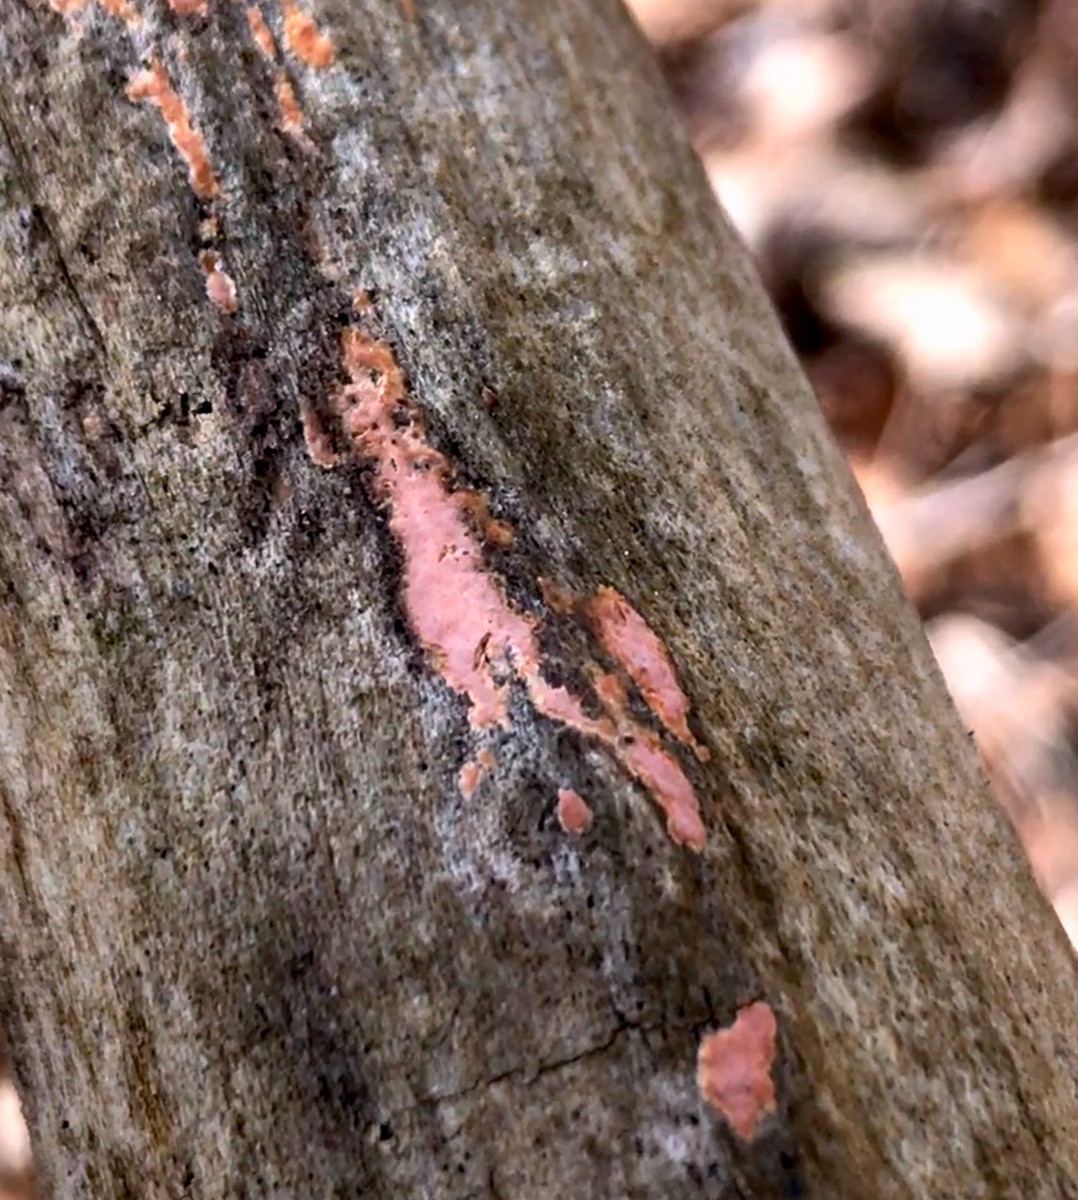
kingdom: Fungi
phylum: Basidiomycota
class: Agaricomycetes
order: Russulales
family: Peniophoraceae
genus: Peniophora
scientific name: Peniophora incarnata
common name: laksefarvet voksskind
